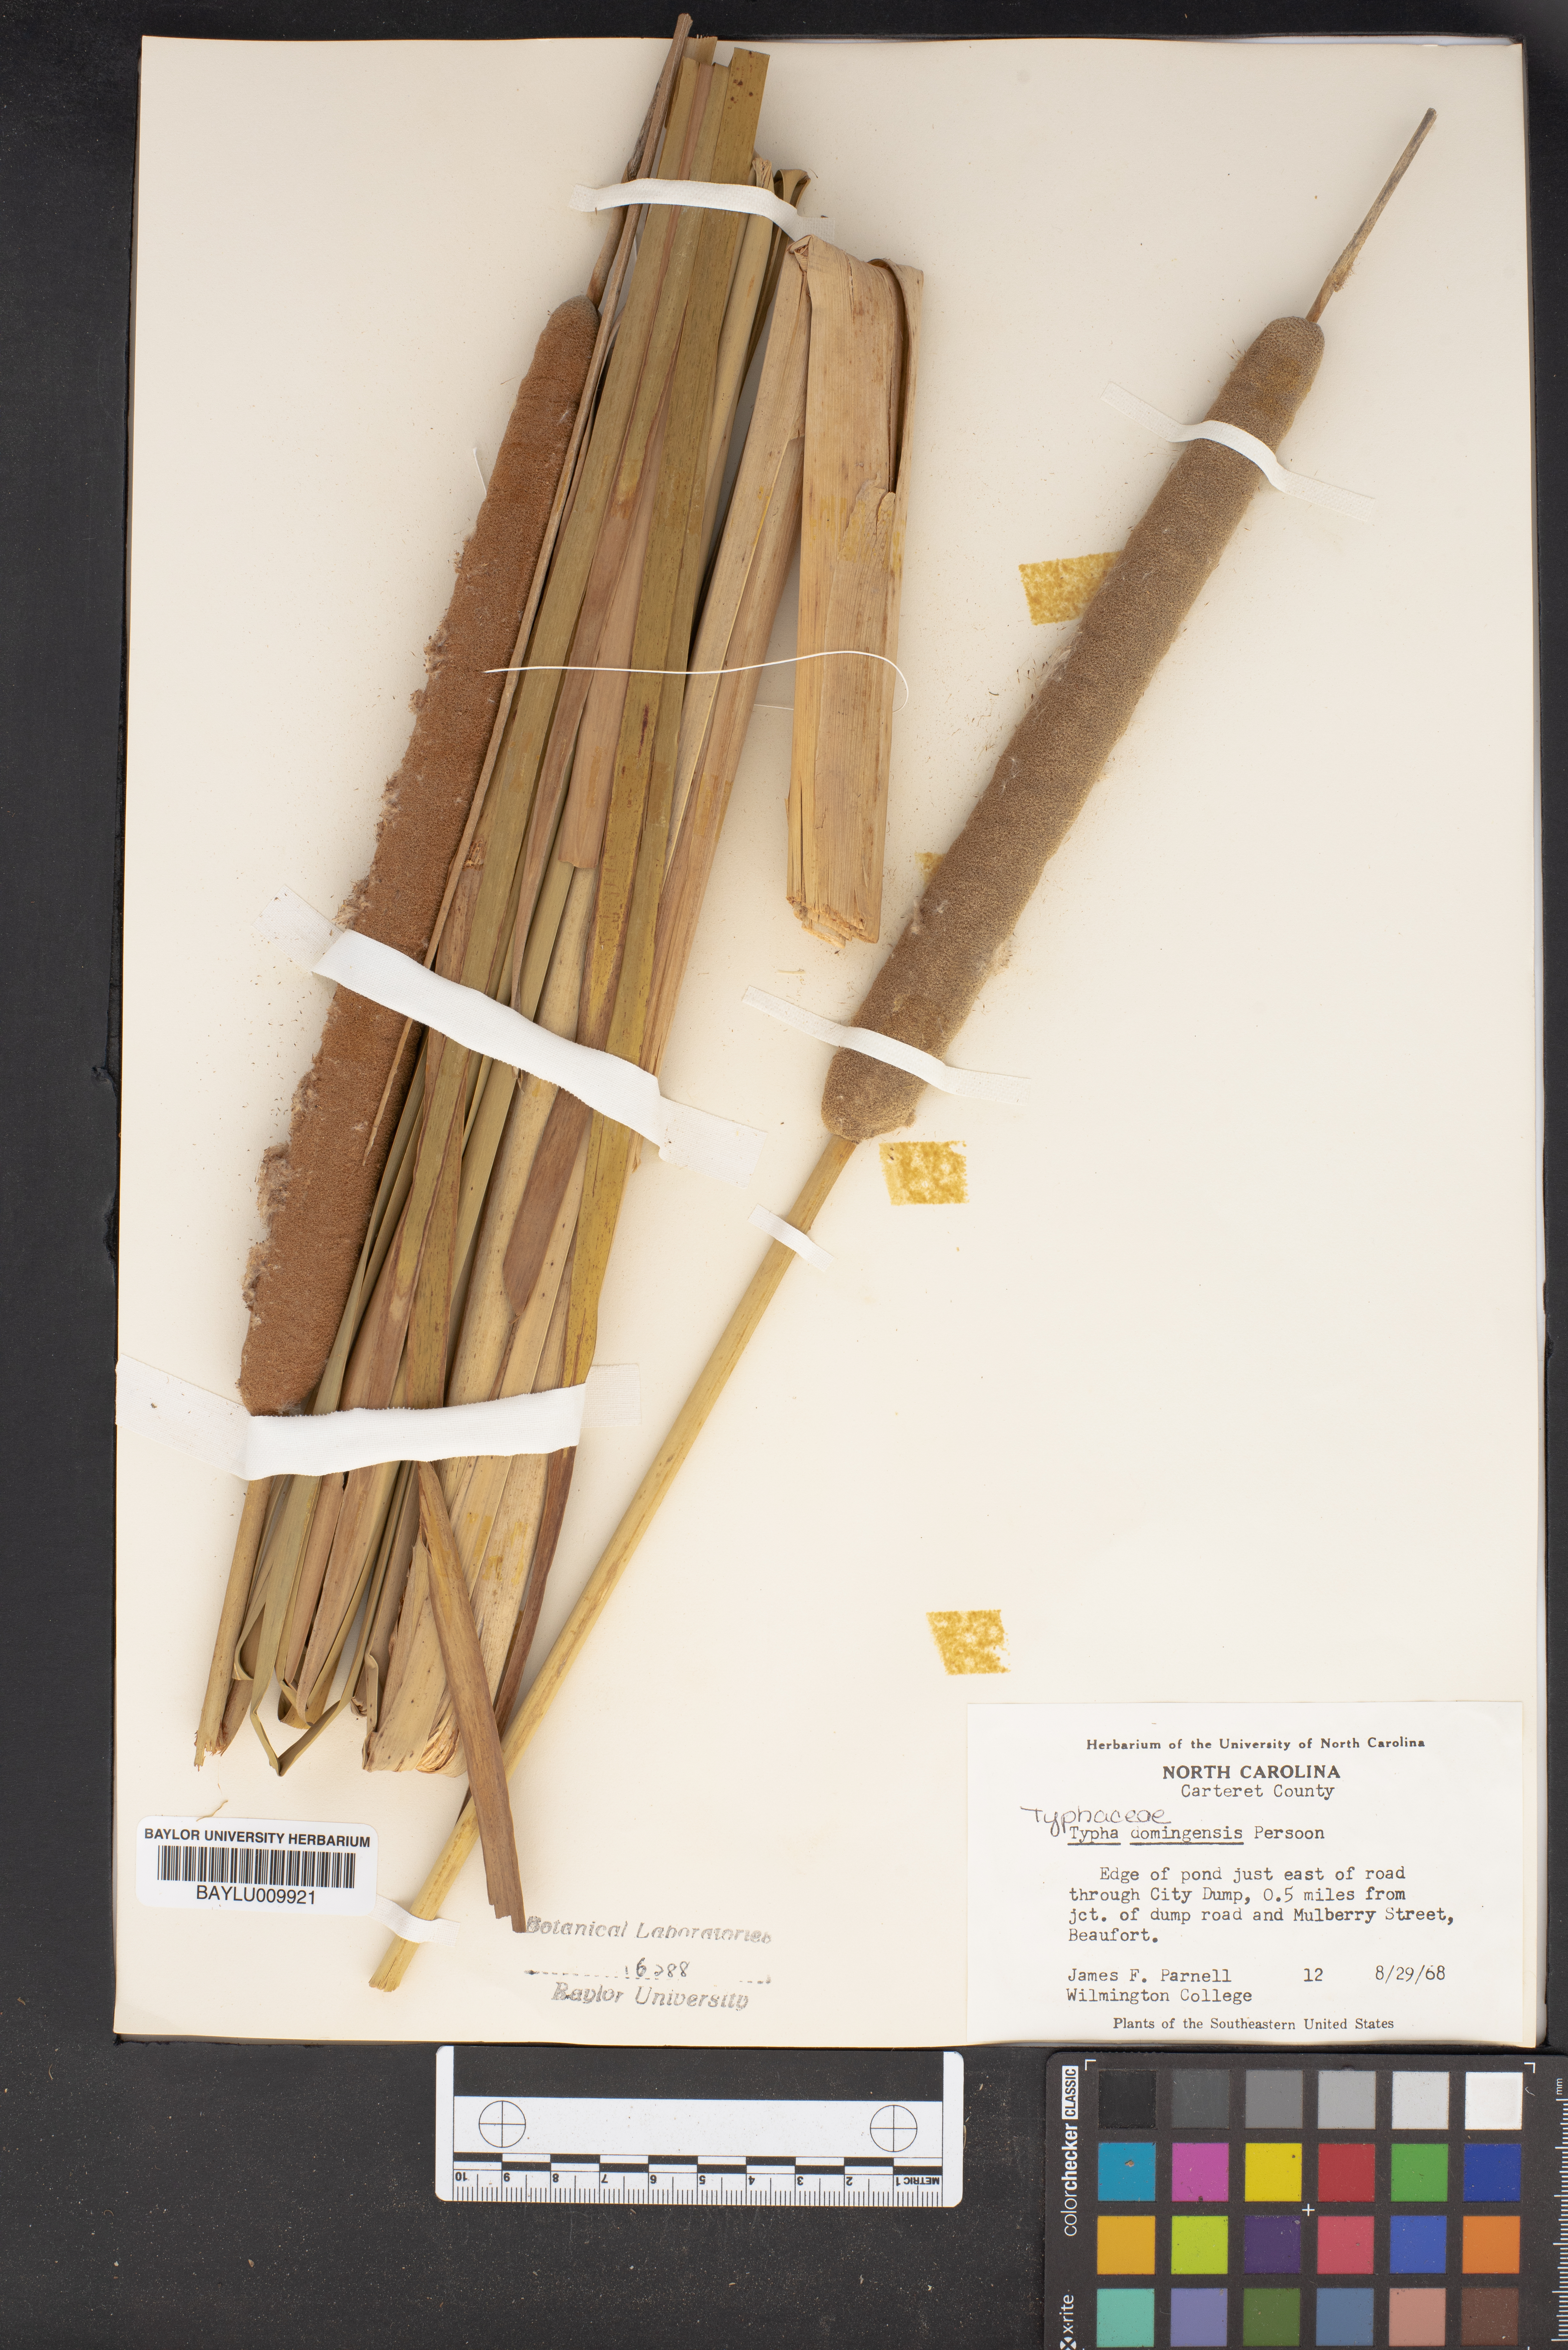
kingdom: Plantae
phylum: Tracheophyta
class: Liliopsida
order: Poales
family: Typhaceae
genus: Typha
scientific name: Typha domingensis
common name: Southern cattail
